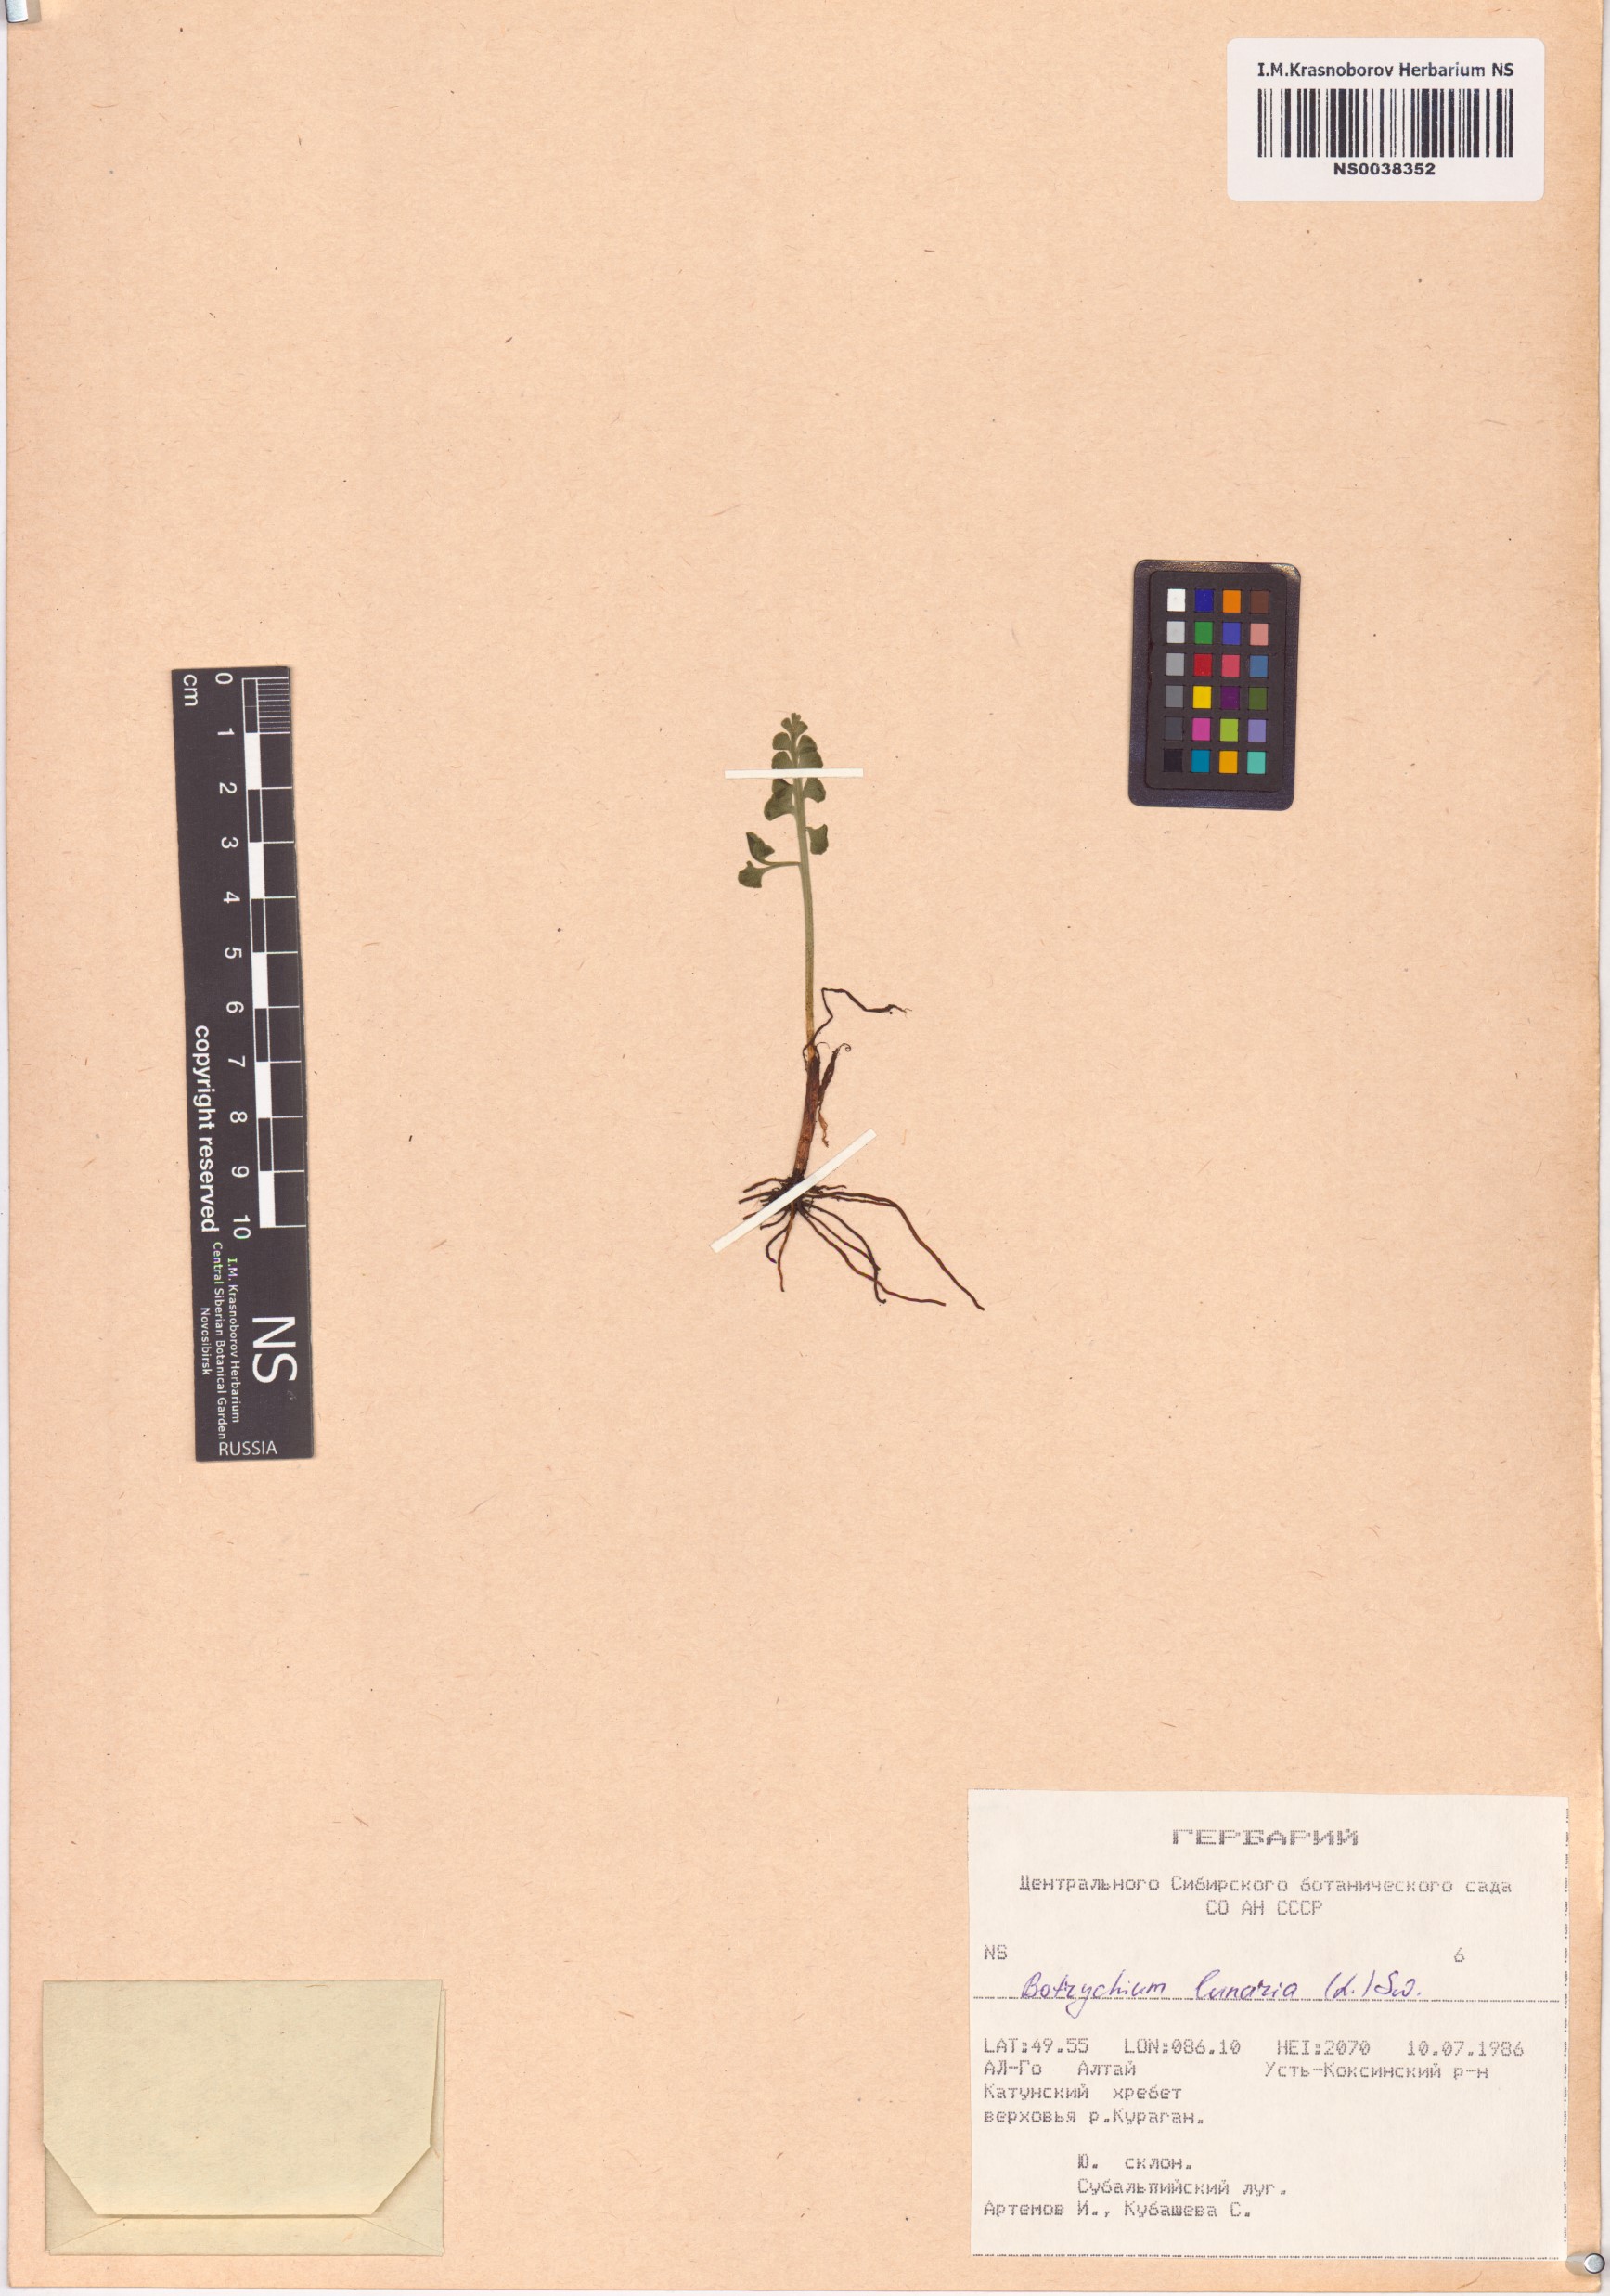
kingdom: Plantae
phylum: Tracheophyta
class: Polypodiopsida
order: Ophioglossales
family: Ophioglossaceae
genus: Botrychium
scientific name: Botrychium lunaria
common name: Moonwort
